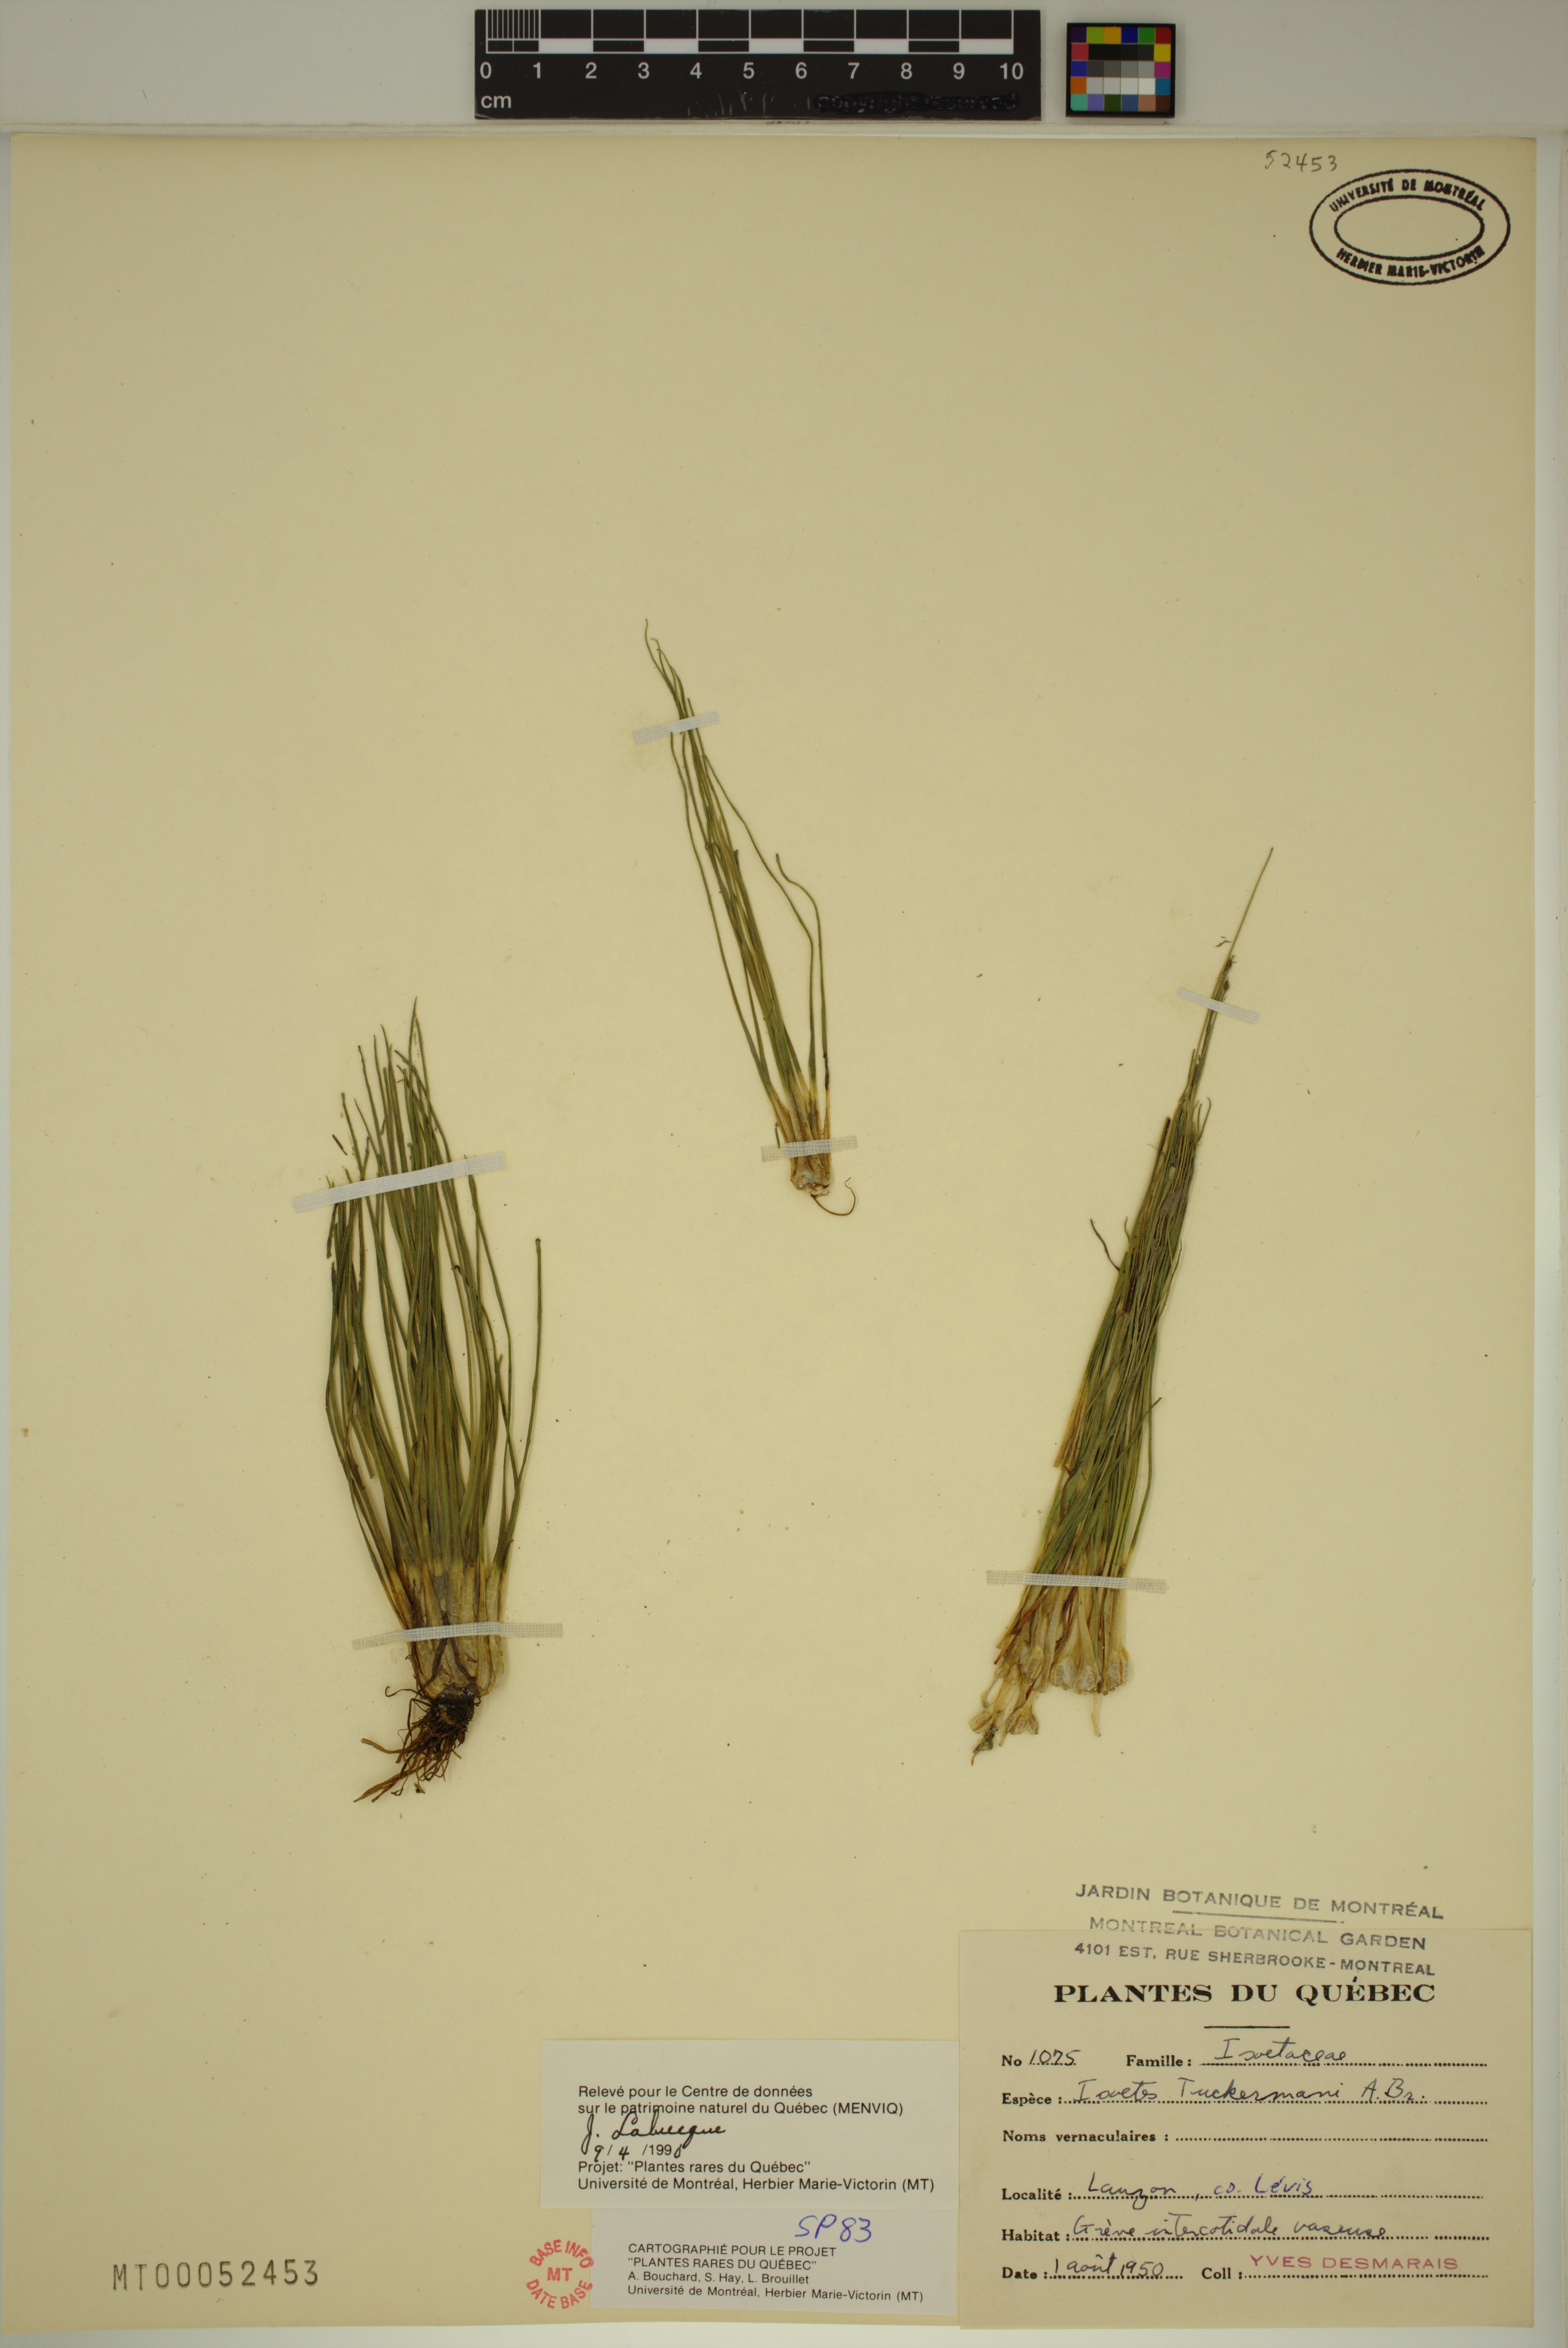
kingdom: Plantae
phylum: Tracheophyta
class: Lycopodiopsida
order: Isoetales
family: Isoetaceae
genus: Isoetes
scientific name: Isoetes laurentiana
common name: St. lawrence quillwort
